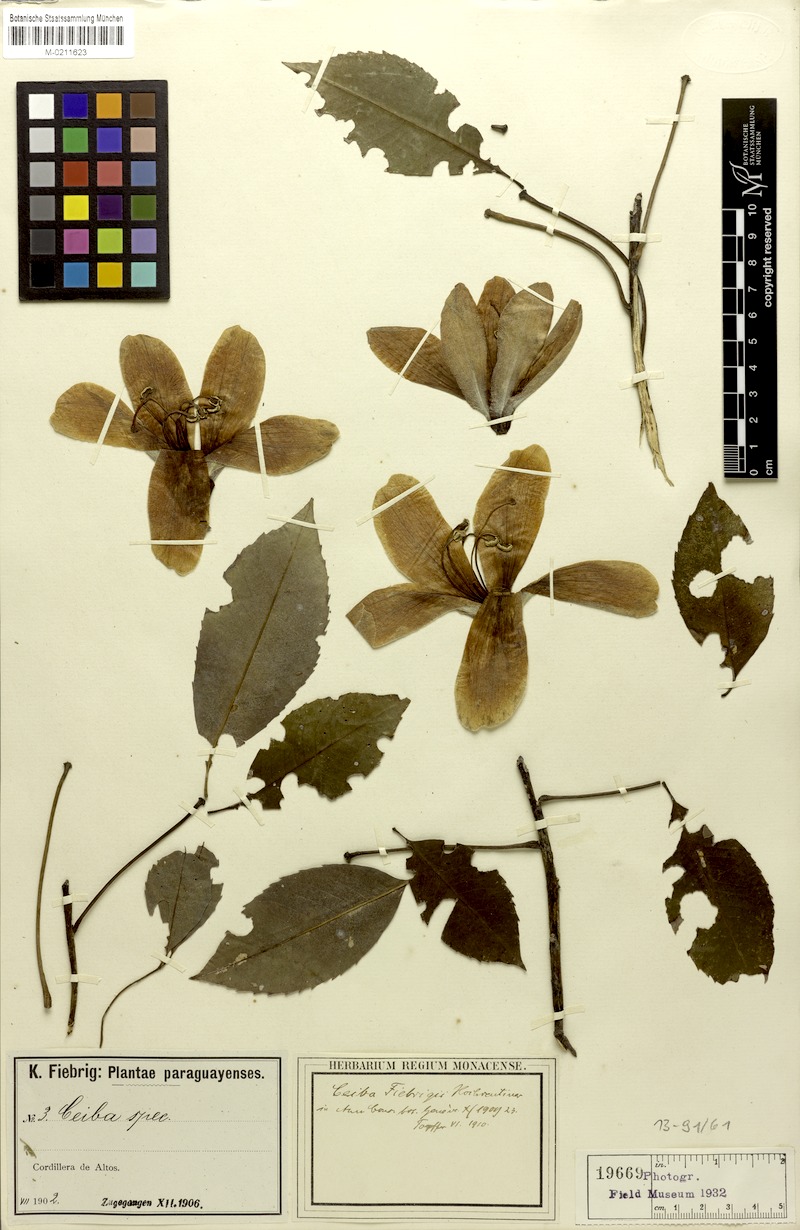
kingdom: Plantae
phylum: Tracheophyta
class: Magnoliopsida
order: Malvales
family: Malvaceae
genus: Ceiba
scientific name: Ceiba pubiflora
